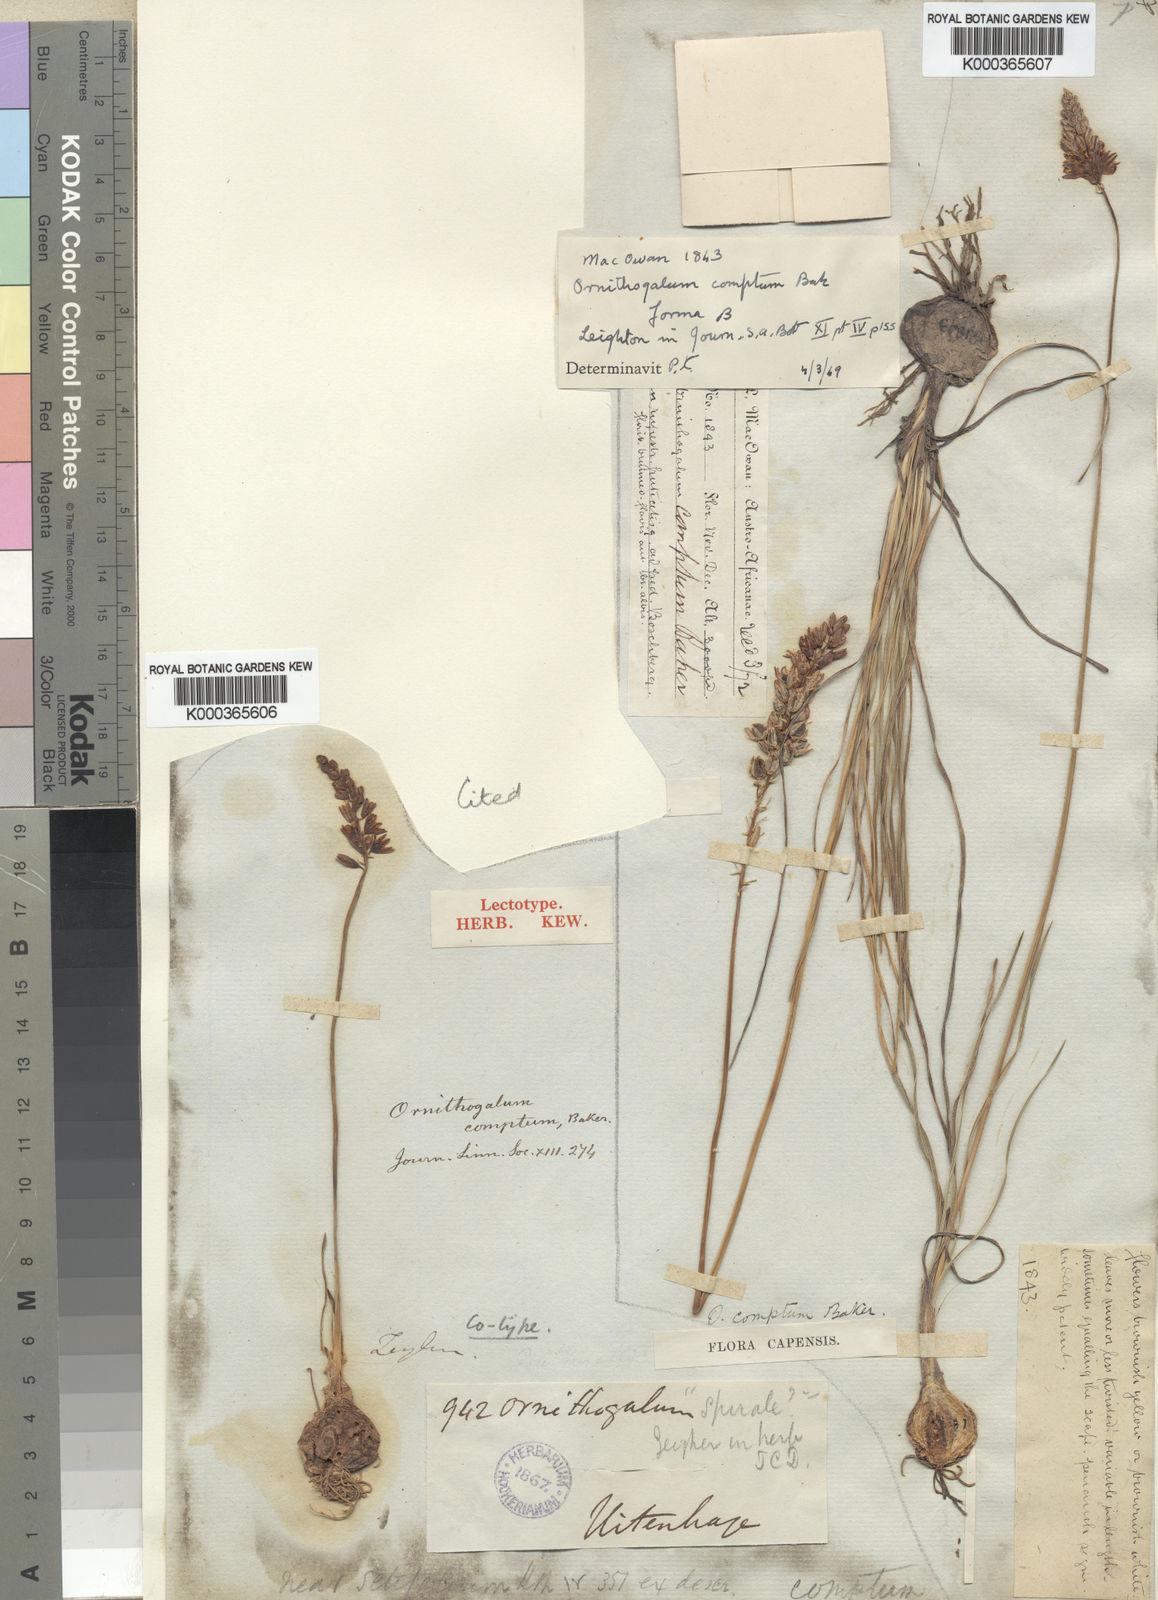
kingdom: Plantae
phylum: Tracheophyta
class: Liliopsida
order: Asparagales
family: Asparagaceae
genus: Ornithogalum
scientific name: Ornithogalum juncifolium
